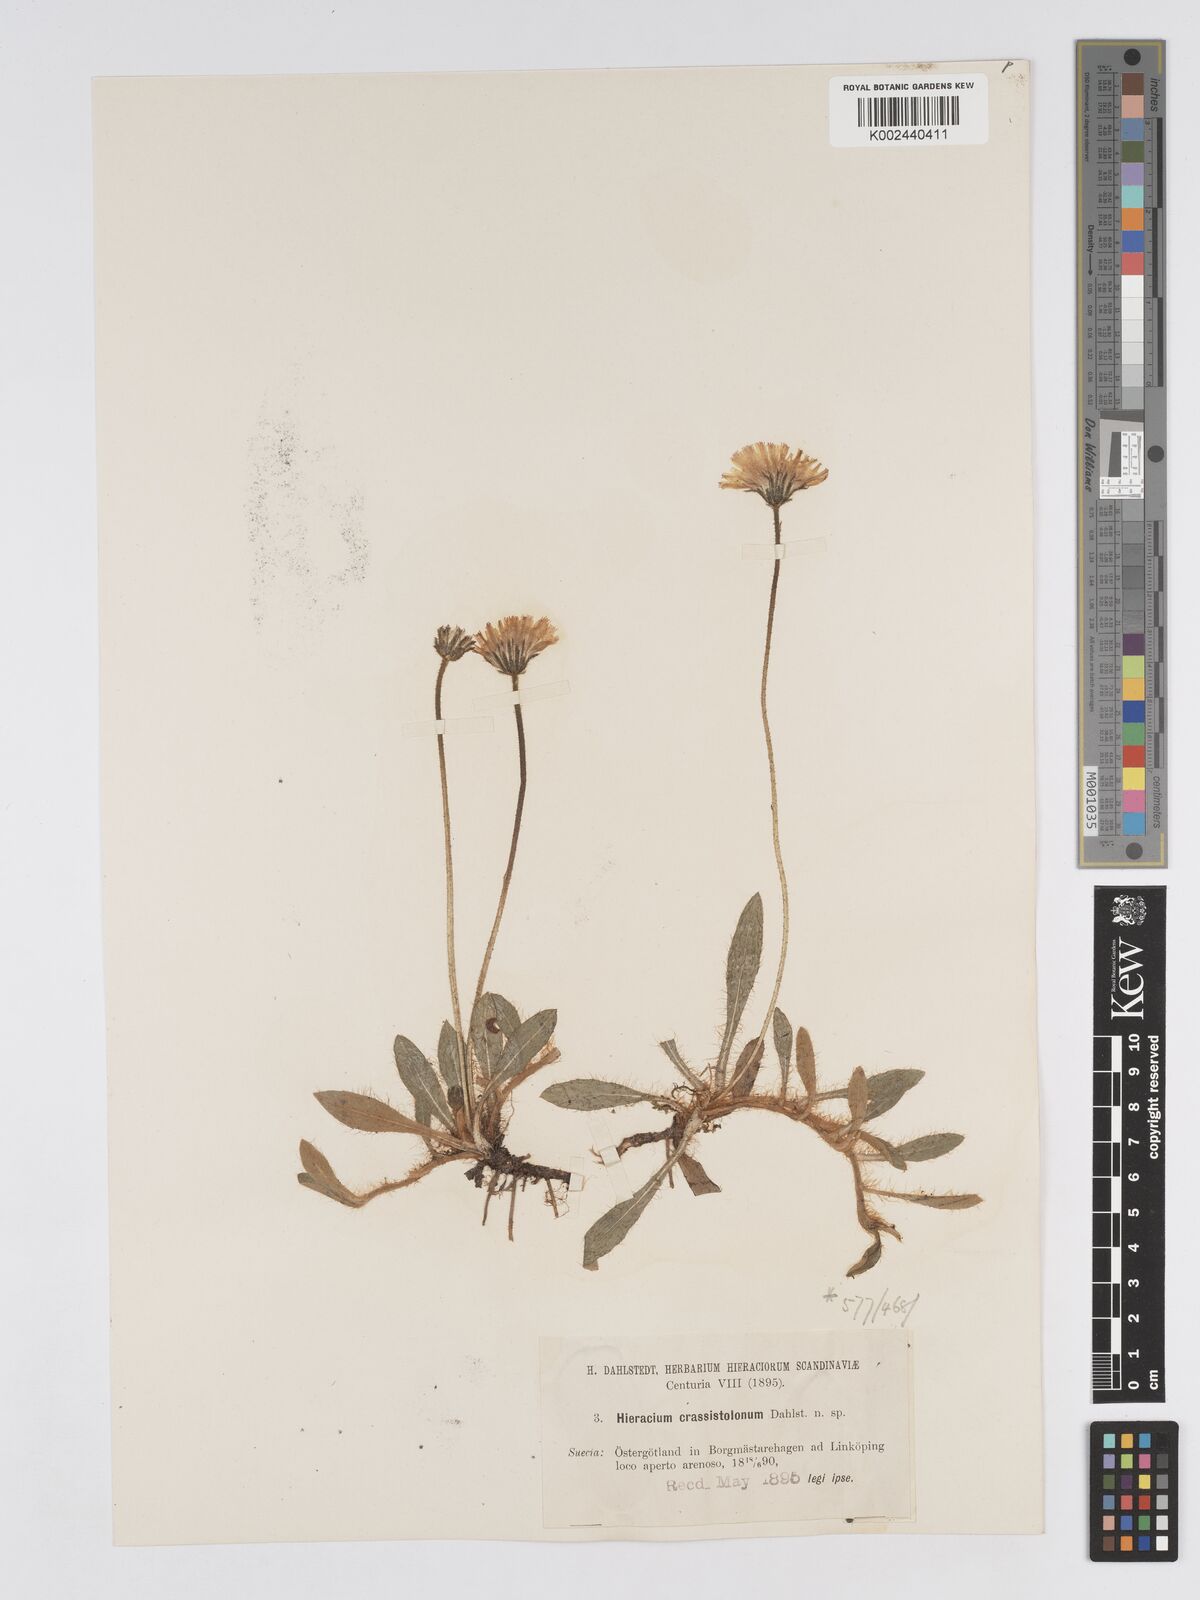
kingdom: Plantae
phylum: Tracheophyta
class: Magnoliopsida
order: Asterales
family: Asteraceae
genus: Pilosella
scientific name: Pilosella officinarum
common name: Mouse-ear hawkweed
